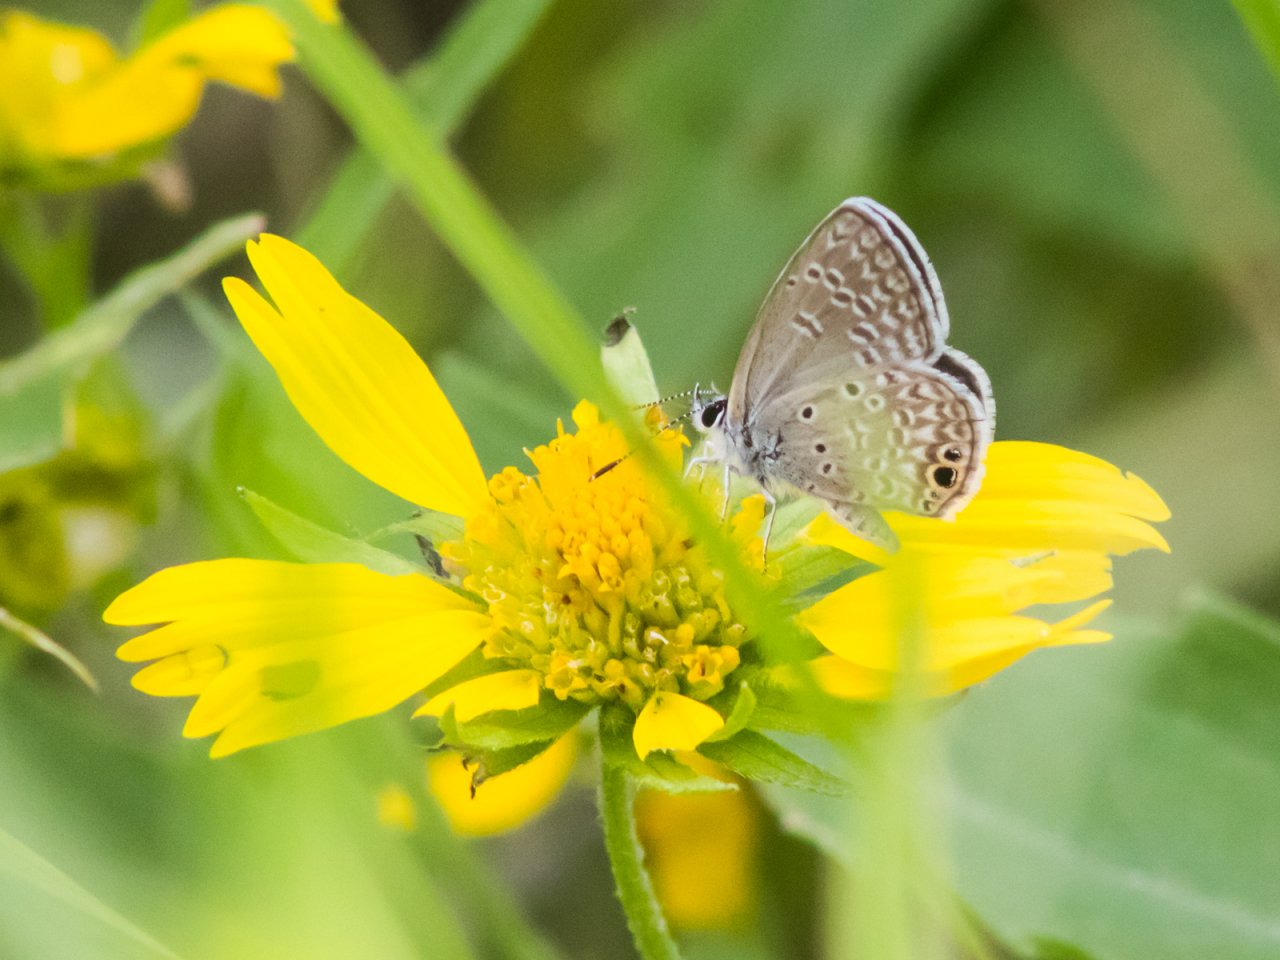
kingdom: Animalia
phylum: Arthropoda
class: Insecta
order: Lepidoptera
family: Lycaenidae
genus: Hemiargus
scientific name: Hemiargus ceraunus
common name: Ceraunus Blue
